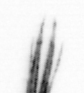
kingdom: Animalia
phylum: Arthropoda
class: Maxillopoda
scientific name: Maxillopoda
